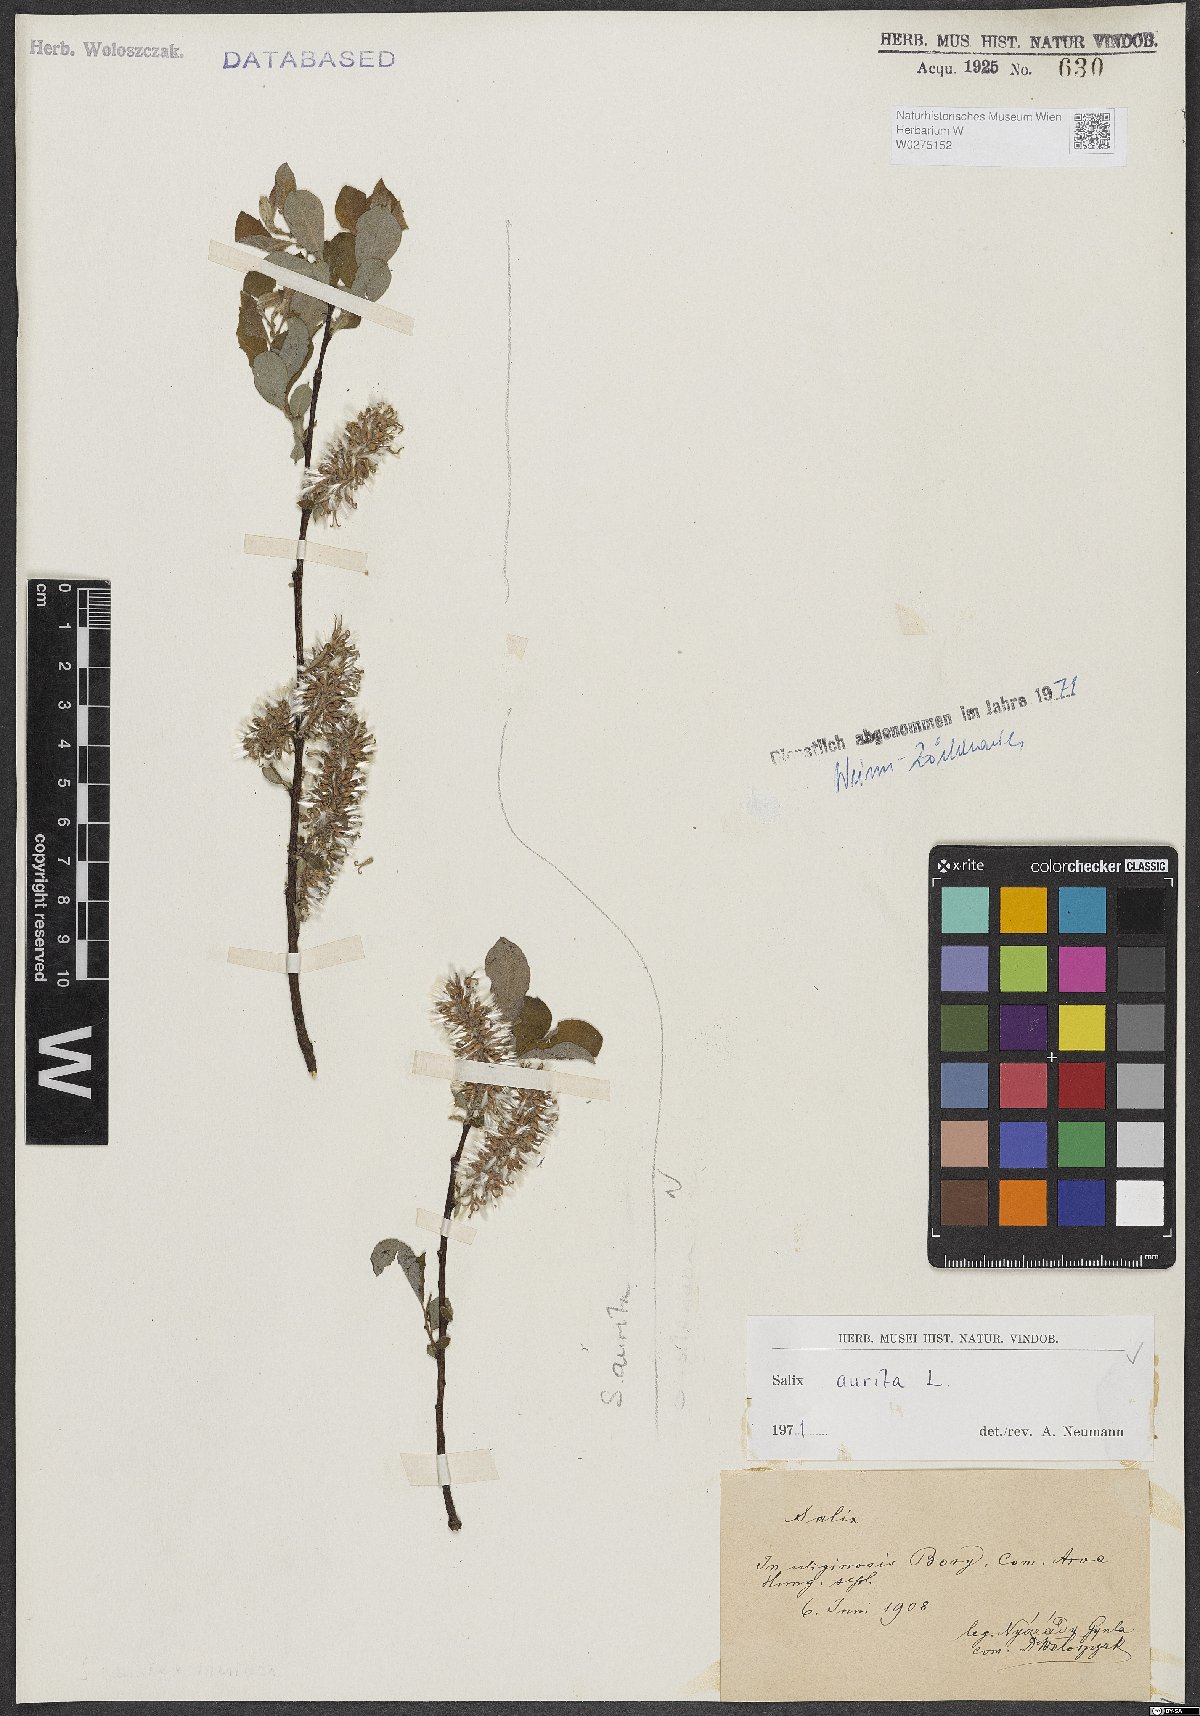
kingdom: Plantae
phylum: Tracheophyta
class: Magnoliopsida
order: Malpighiales
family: Salicaceae
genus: Salix
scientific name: Salix aurita
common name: Eared willow
